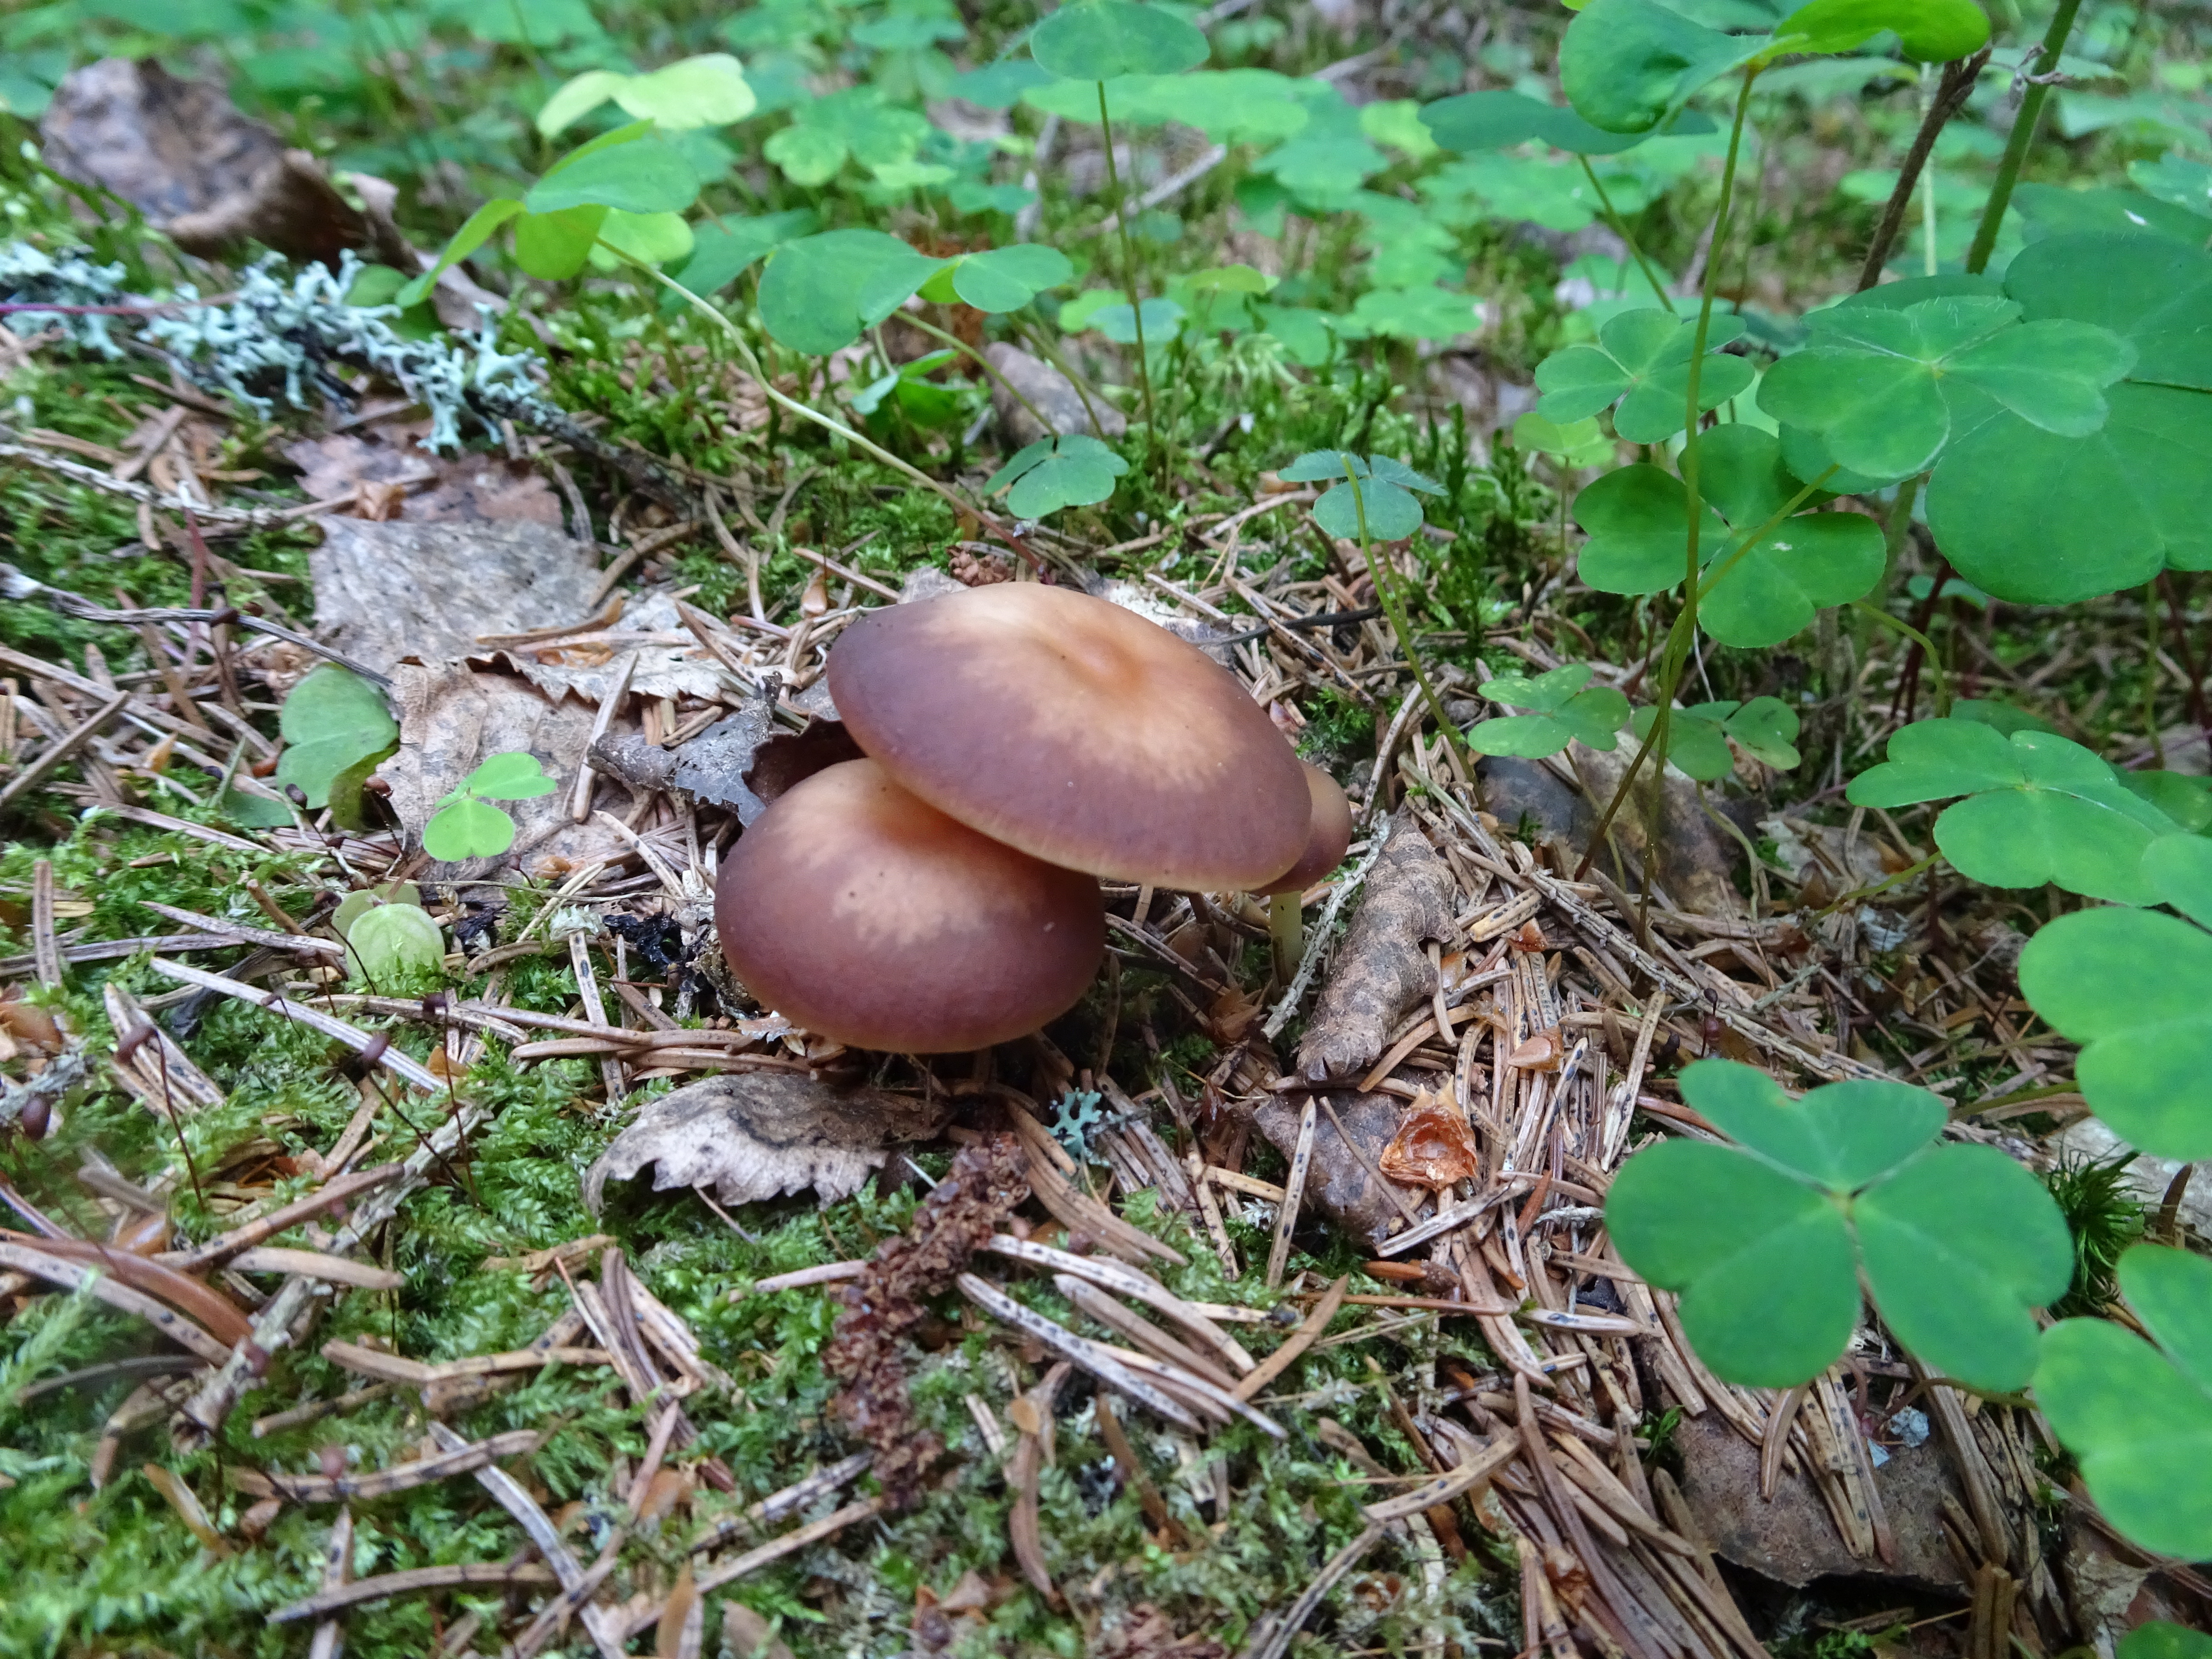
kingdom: Fungi
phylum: Basidiomycota
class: Agaricomycetes
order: Agaricales
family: Omphalotaceae
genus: Gymnopus
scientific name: Gymnopus ocior
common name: Spring toughshank
